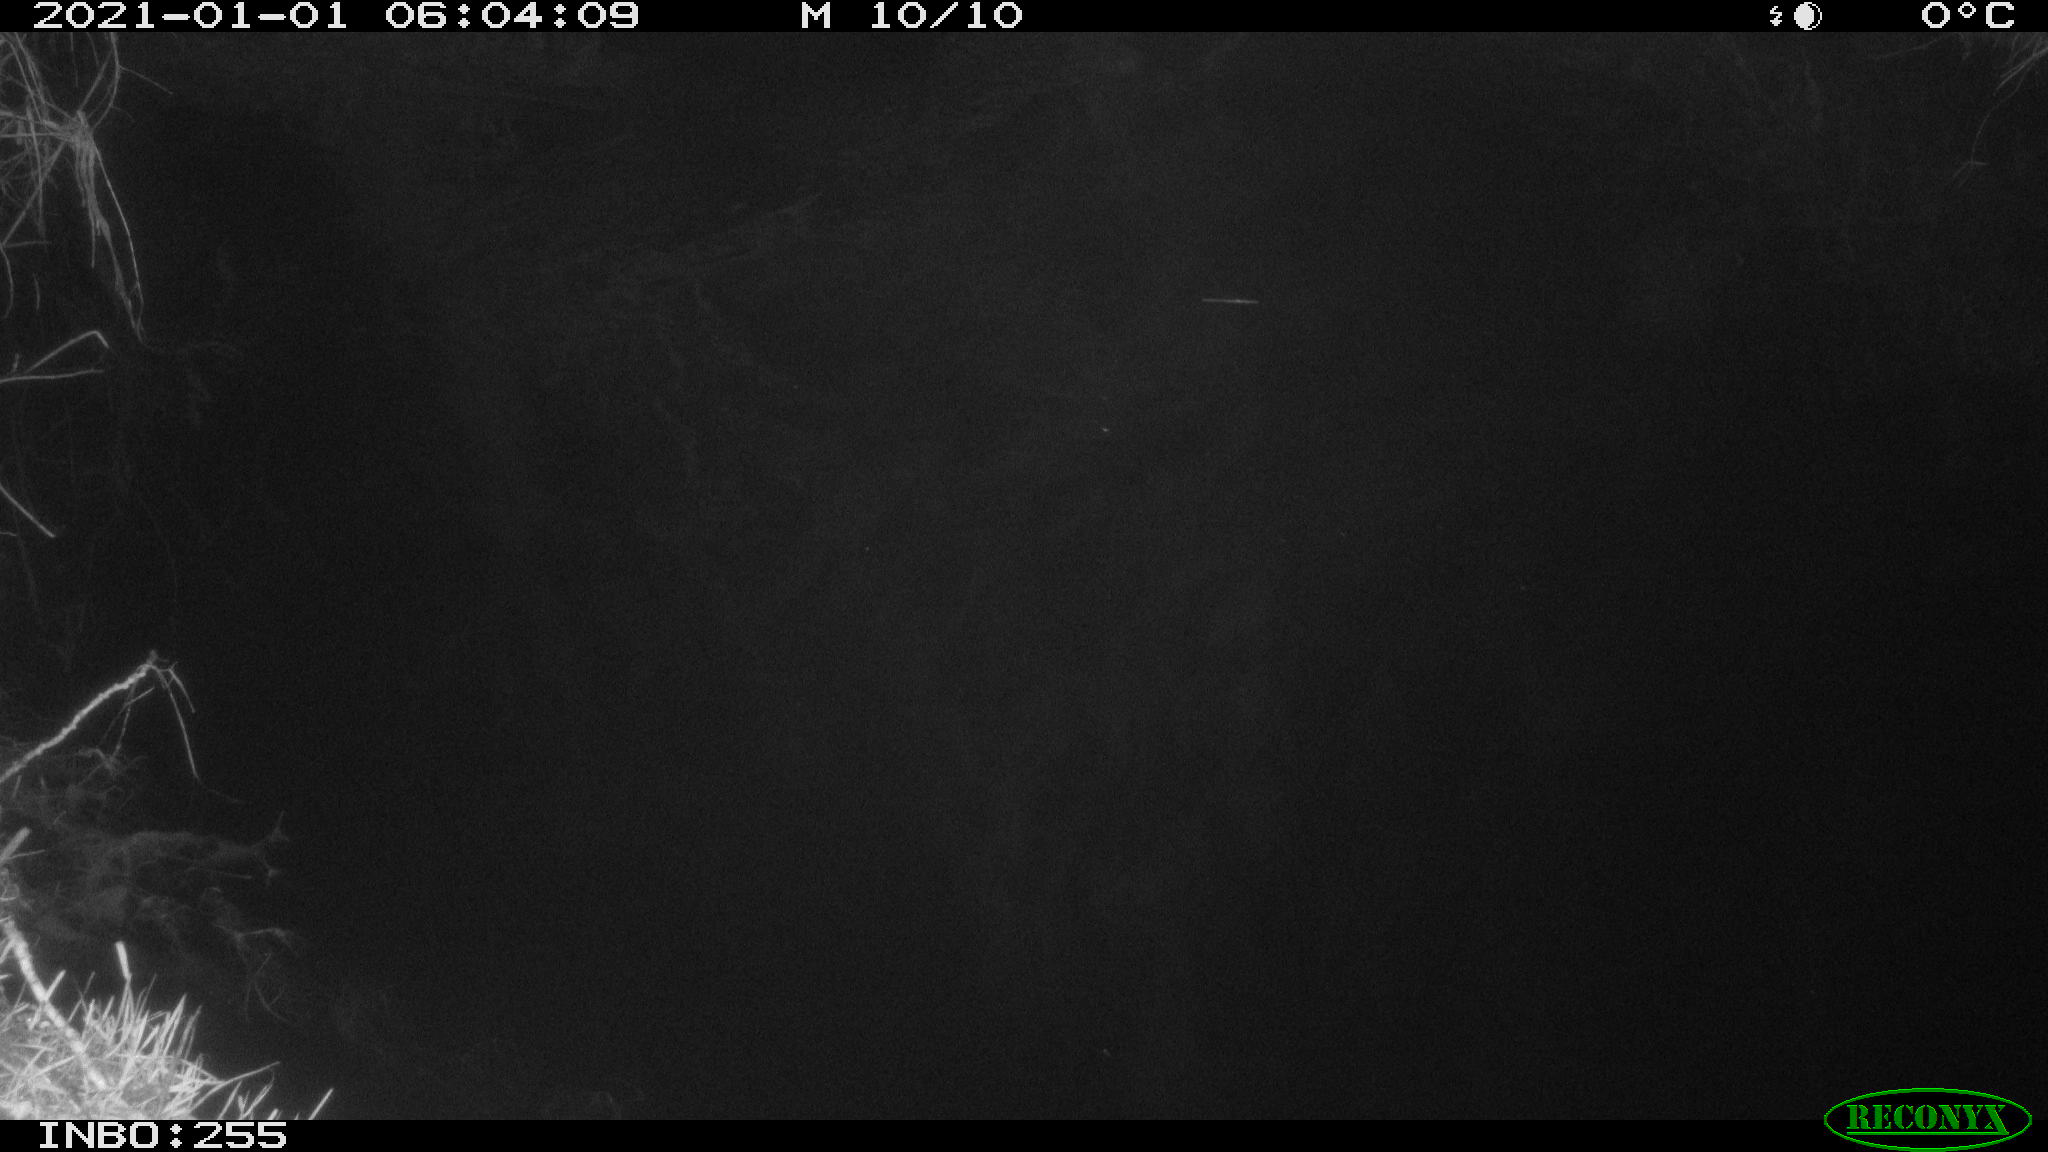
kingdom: Animalia
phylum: Chordata
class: Aves
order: Anseriformes
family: Anatidae
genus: Anas
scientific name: Anas platyrhynchos
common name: Mallard
